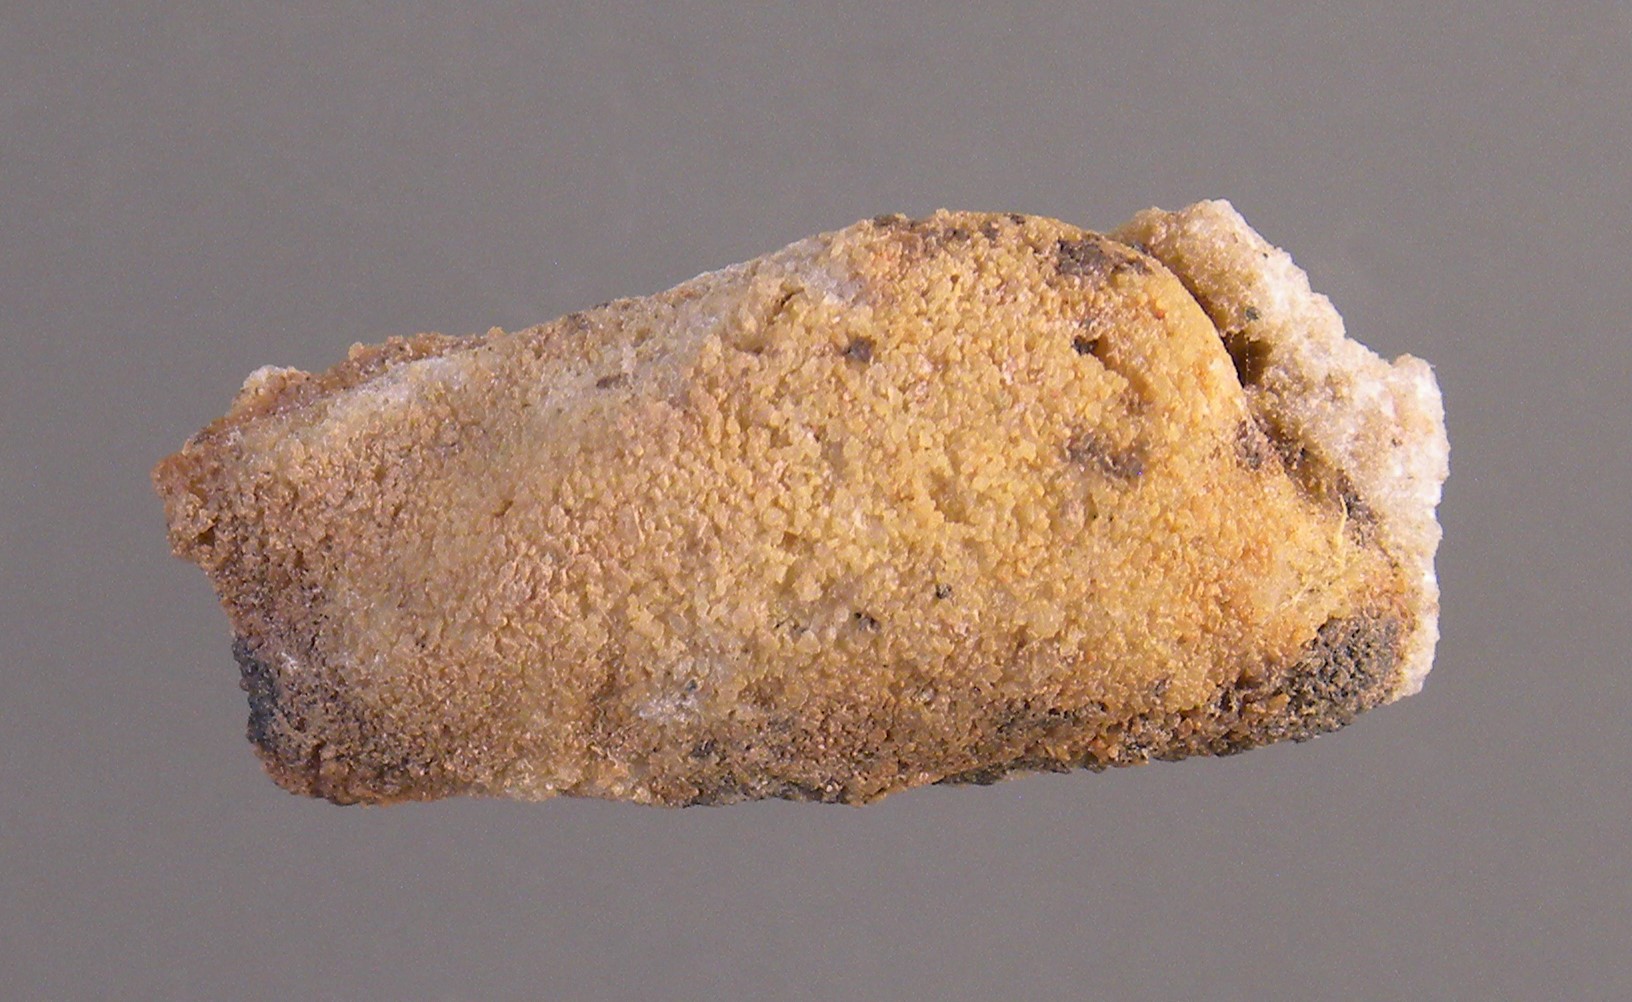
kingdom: Animalia
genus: Koenenia
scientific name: Koenenia
